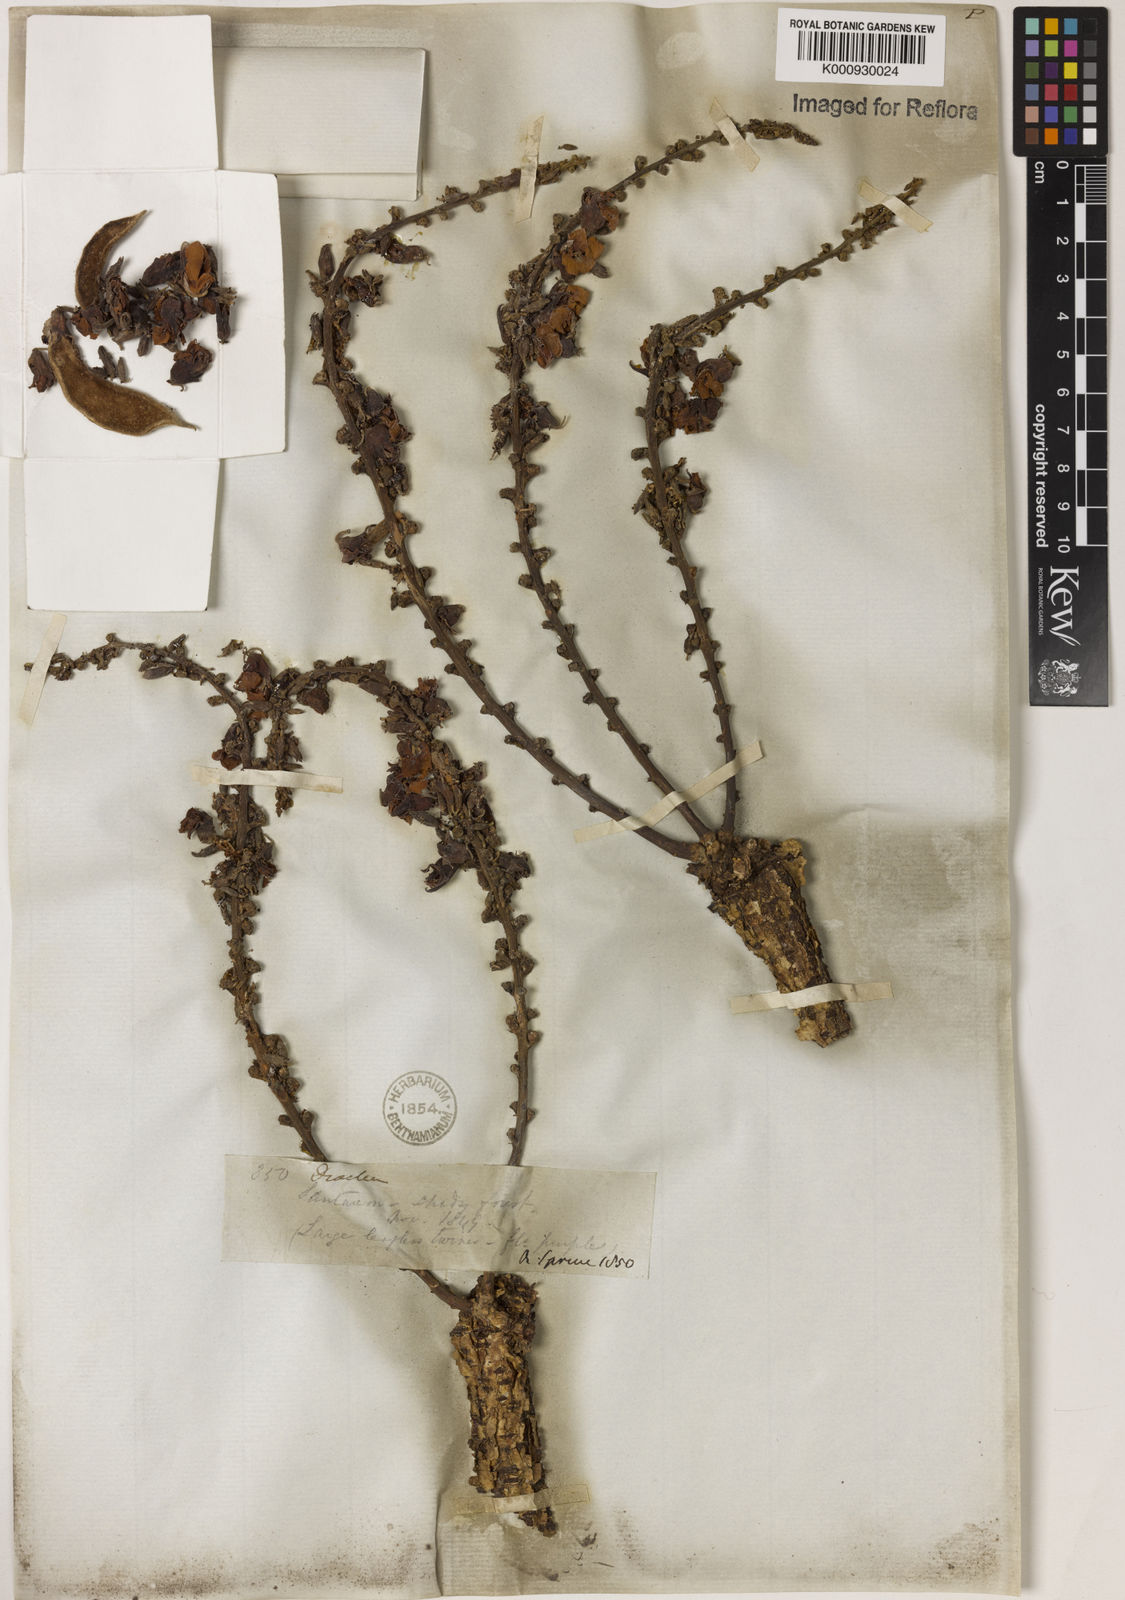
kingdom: Plantae
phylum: Tracheophyta
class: Magnoliopsida
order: Fabales
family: Fabaceae
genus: Macropsychanthus
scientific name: Macropsychanthus macrocarpus
